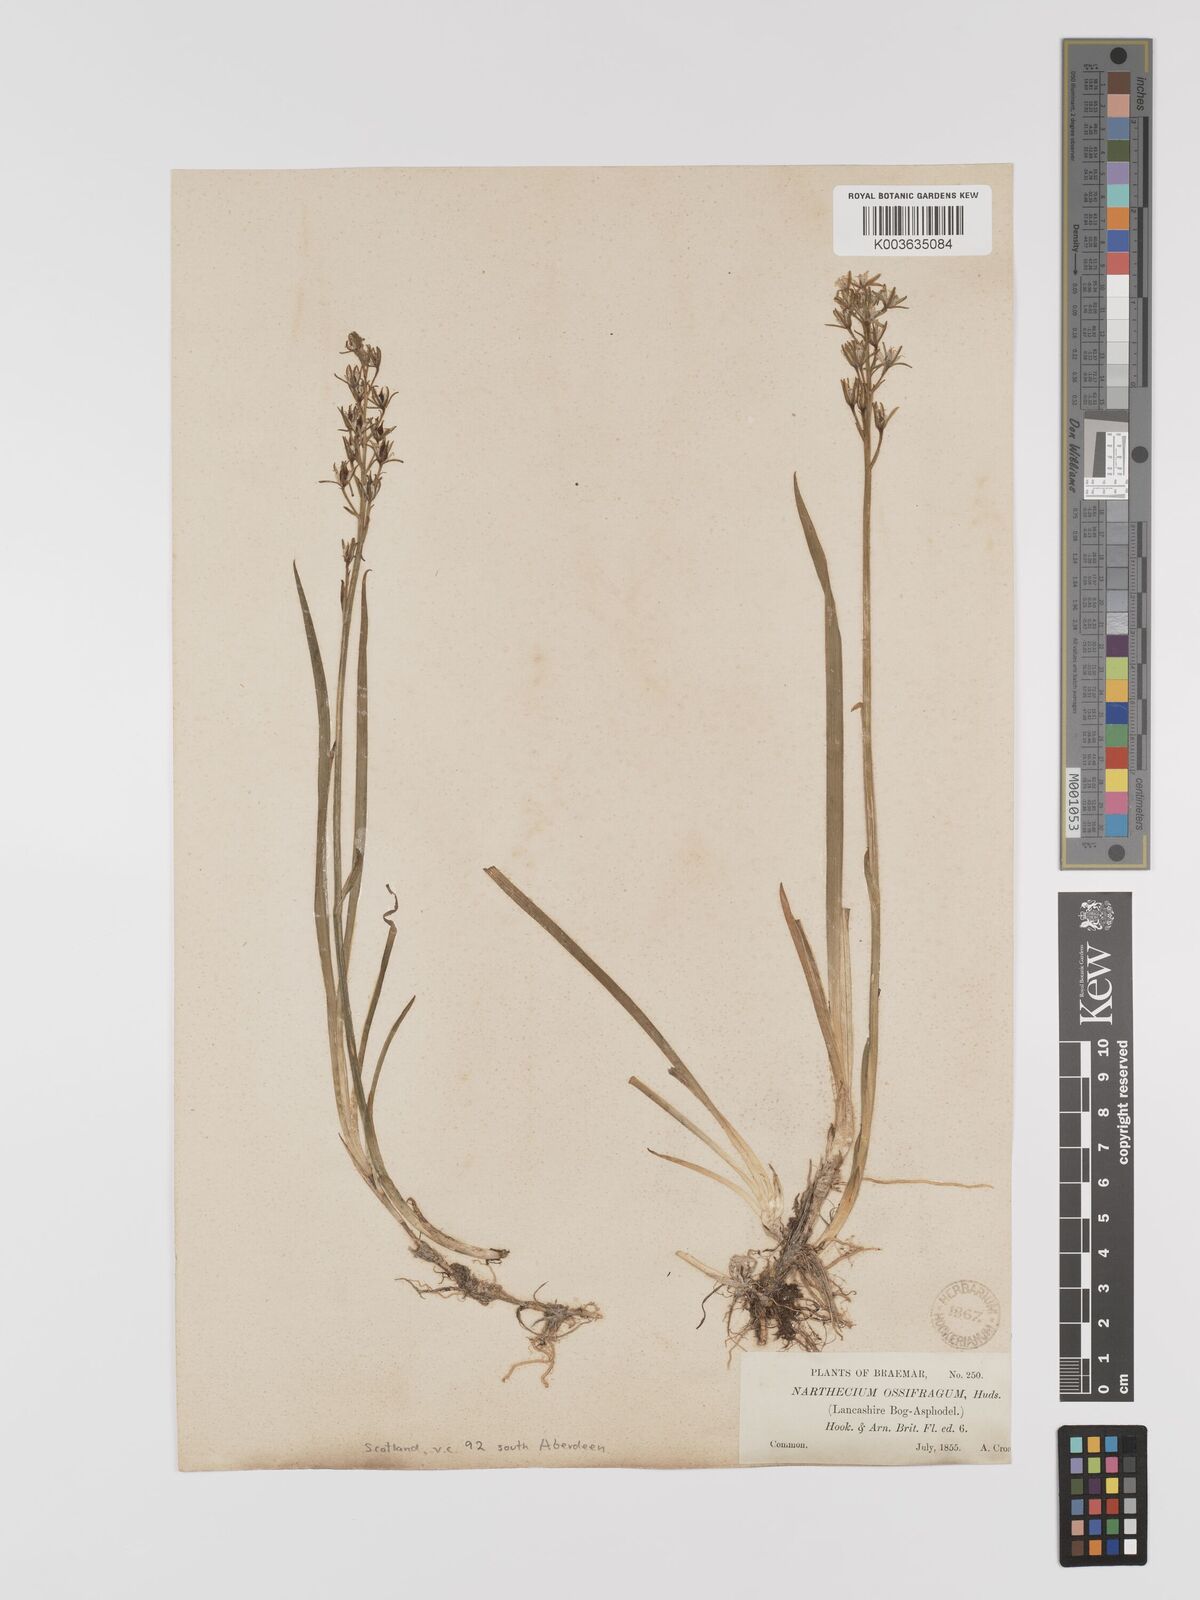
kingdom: Plantae
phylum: Tracheophyta
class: Liliopsida
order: Dioscoreales
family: Nartheciaceae
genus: Narthecium
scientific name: Narthecium
